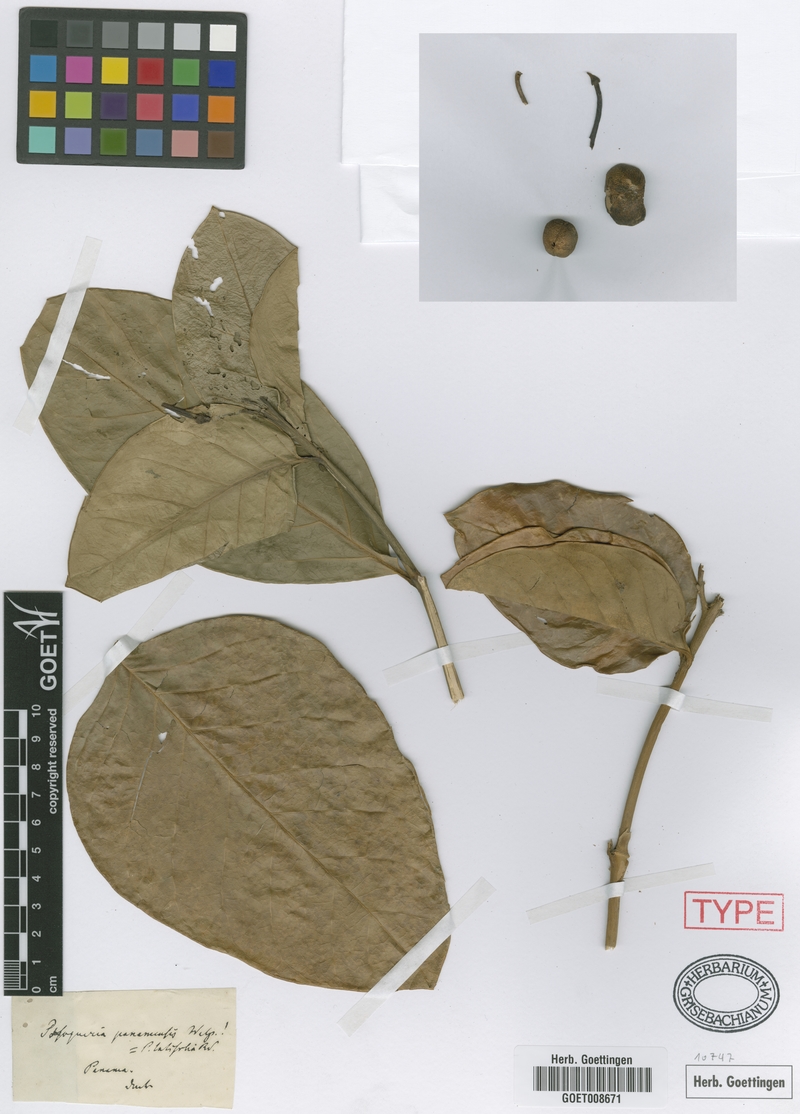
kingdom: Plantae
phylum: Tracheophyta
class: Magnoliopsida
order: Gentianales
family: Rubiaceae
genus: Posoqueria
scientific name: Posoqueria latifolia
